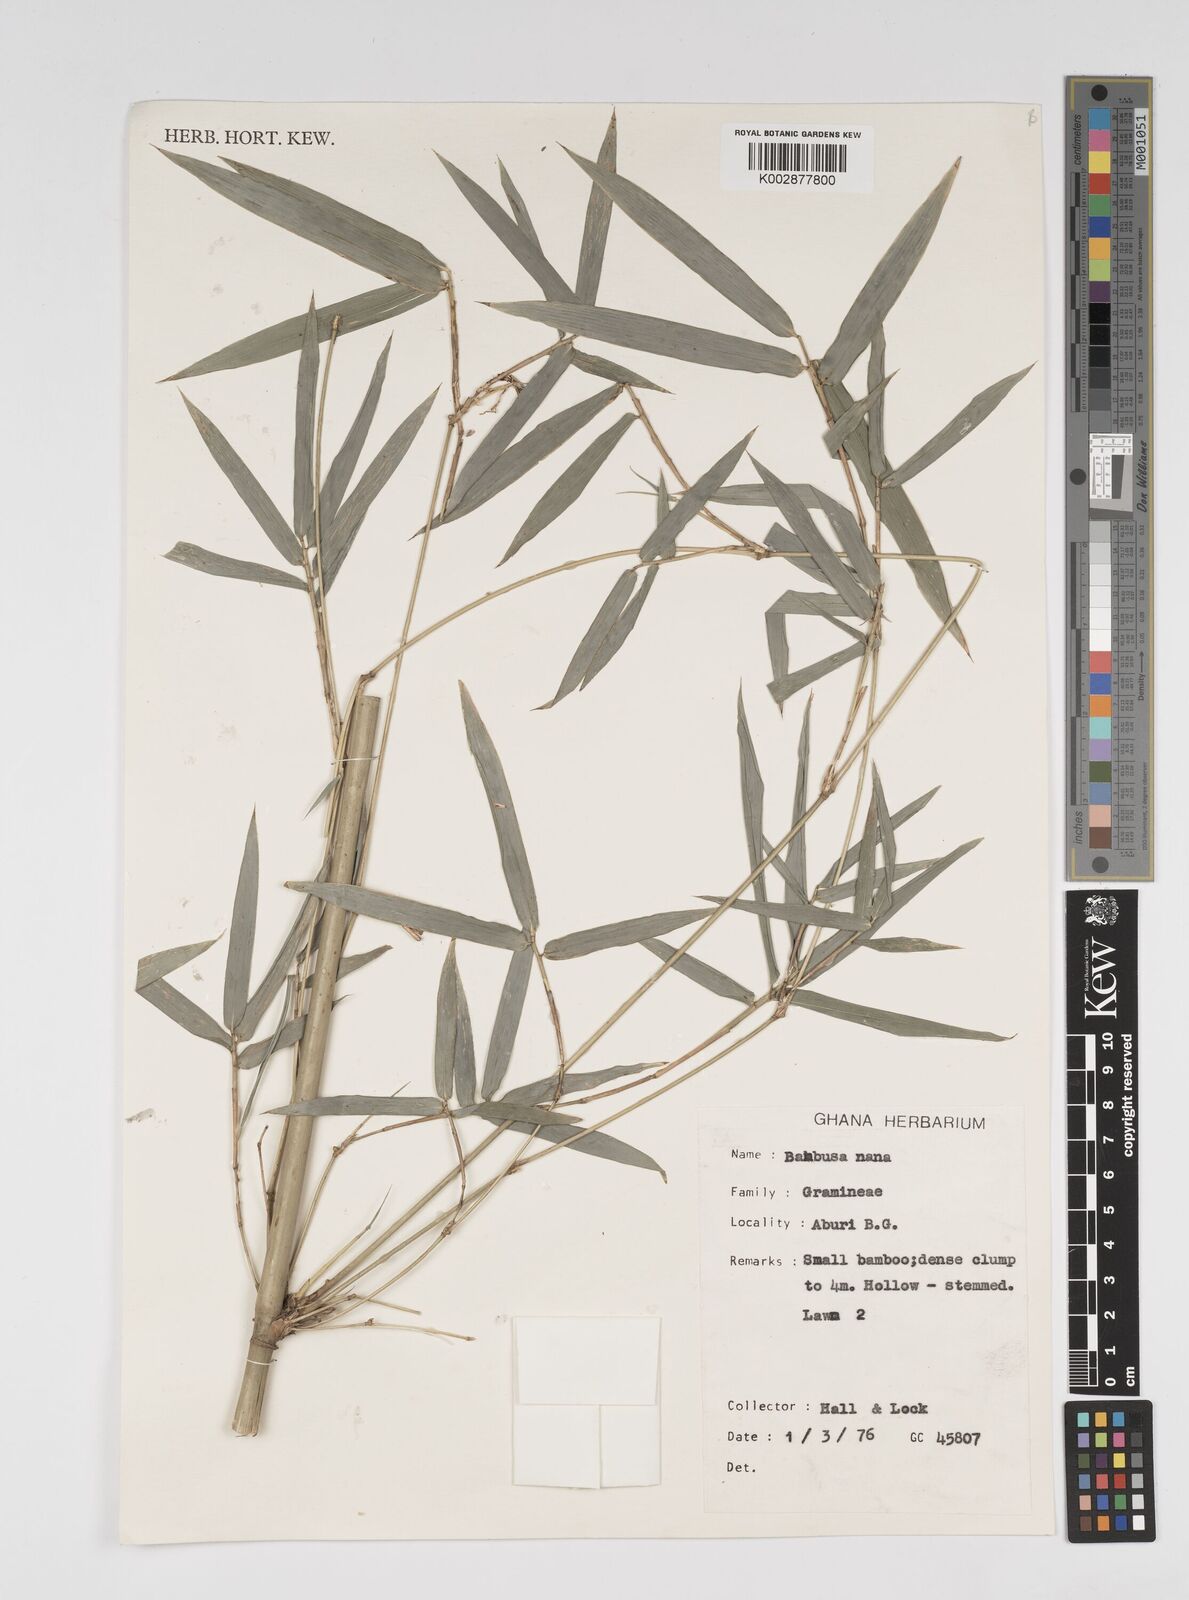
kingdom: Plantae
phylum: Tracheophyta
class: Liliopsida
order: Poales
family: Poaceae
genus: Bambusa
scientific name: Bambusa multiplex
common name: Hedge bamboo
